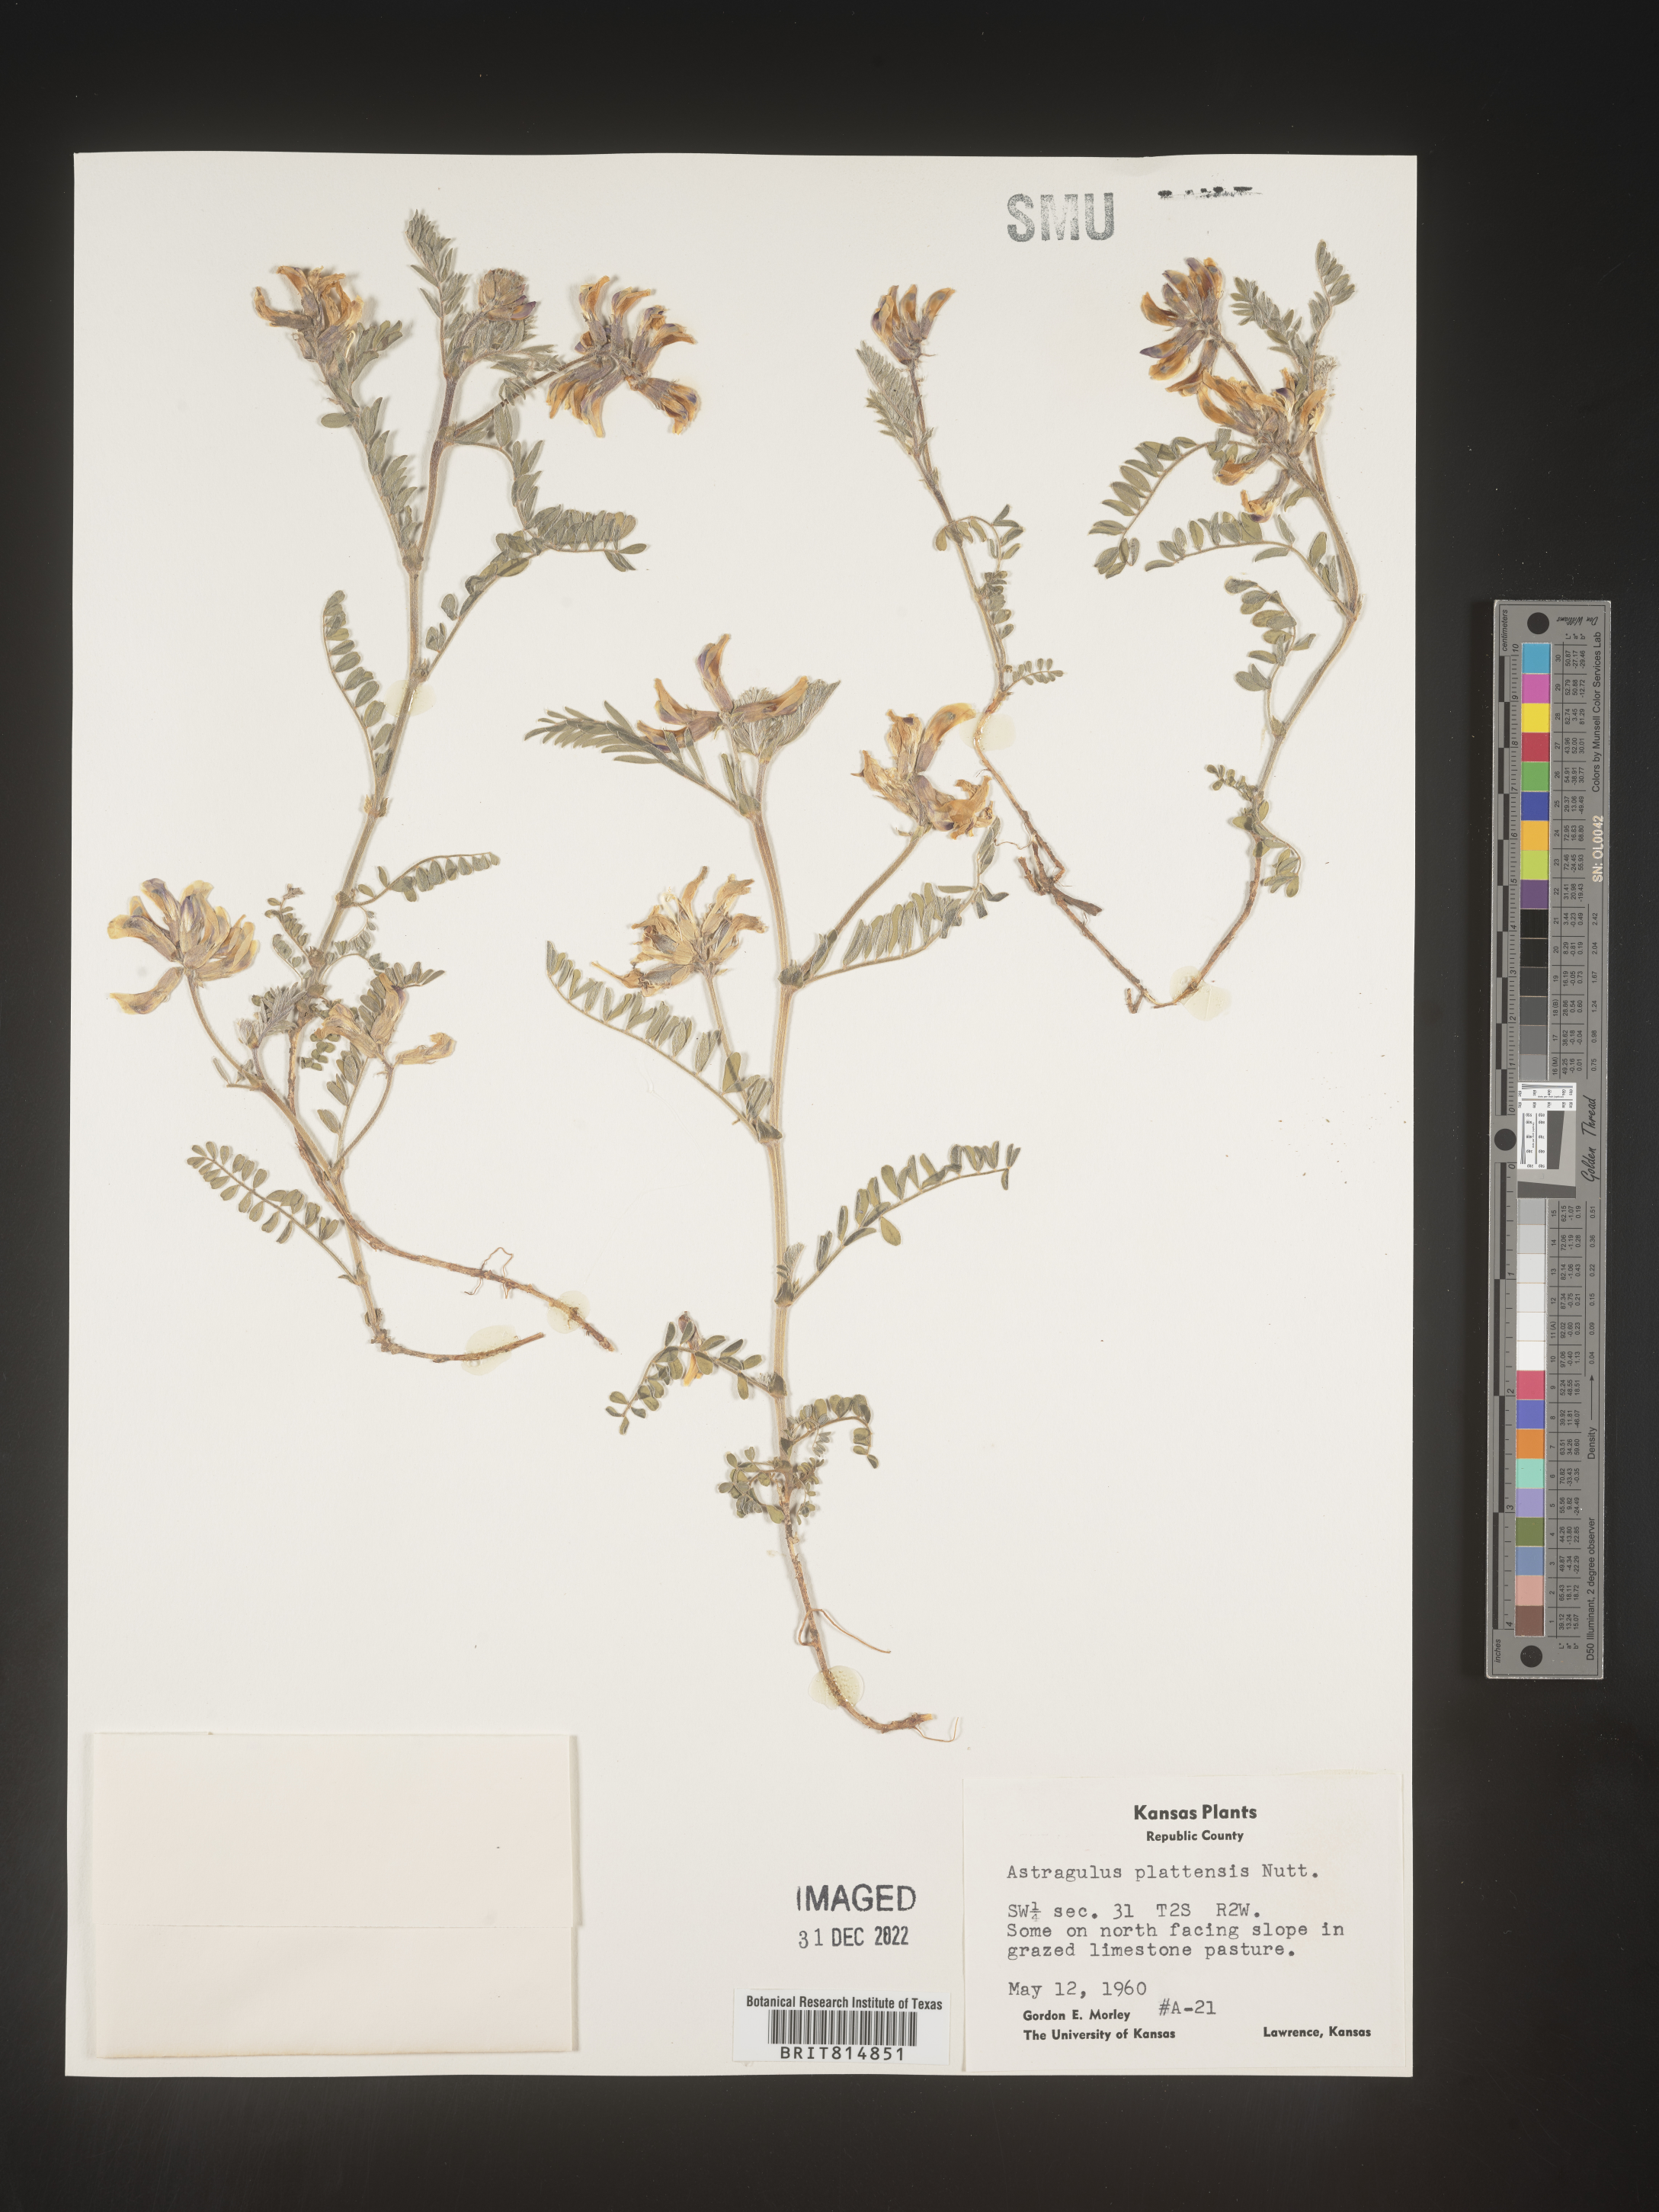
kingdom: Plantae
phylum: Tracheophyta
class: Magnoliopsida
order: Fabales
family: Fabaceae
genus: Astragalus
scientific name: Astragalus plattensis
